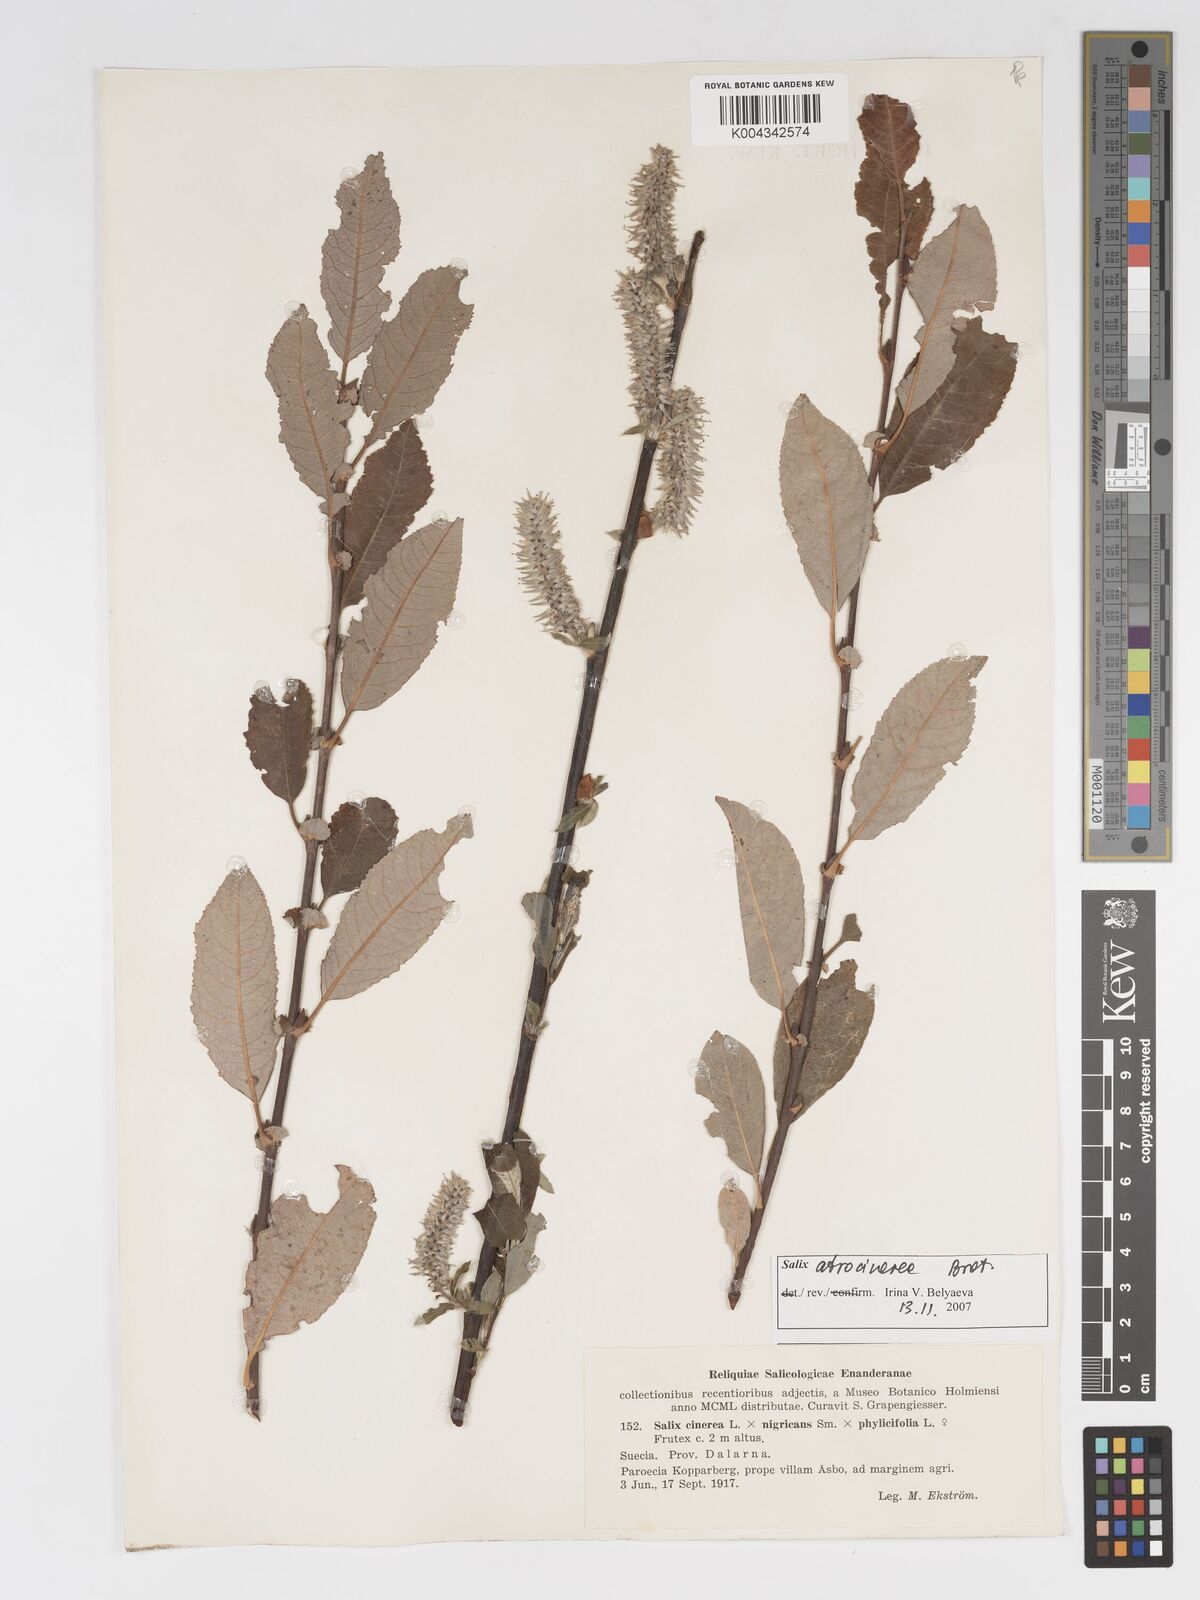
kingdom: Plantae
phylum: Tracheophyta
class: Magnoliopsida
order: Malpighiales
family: Salicaceae
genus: Salix
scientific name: Salix cinerea
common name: Common sallow
